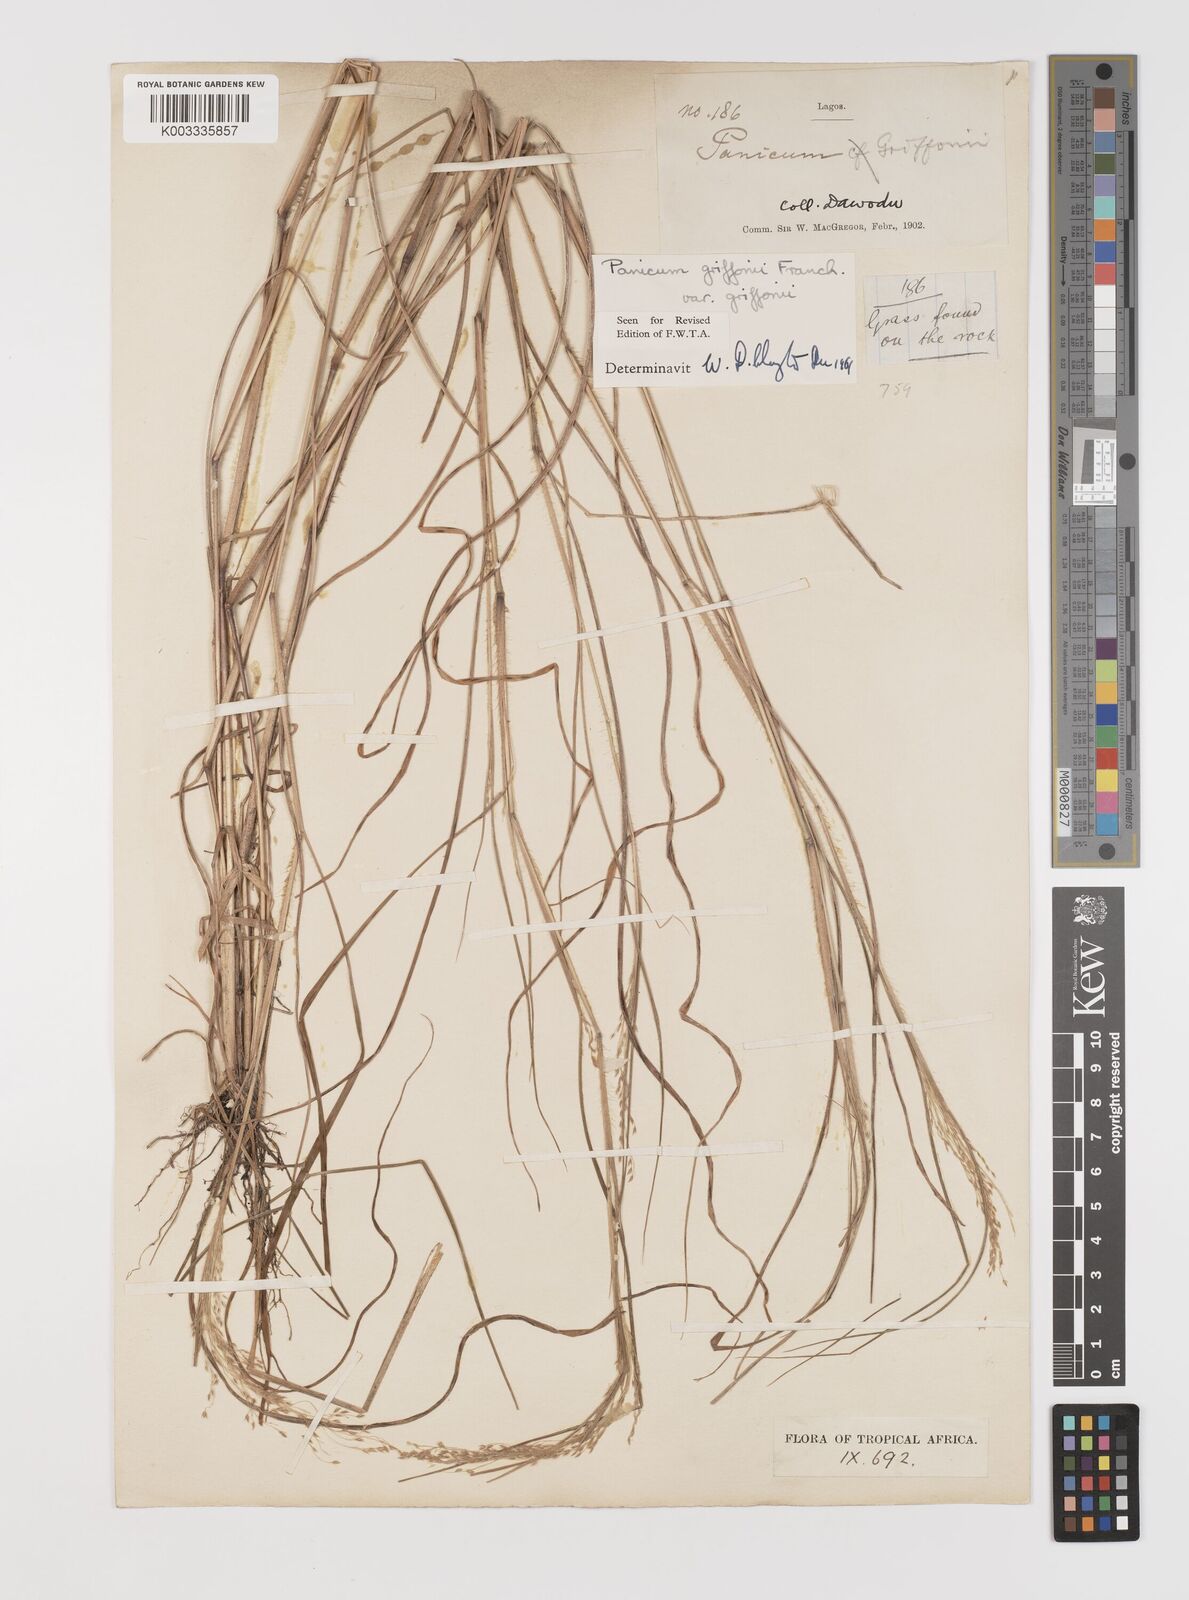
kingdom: Plantae
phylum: Tracheophyta
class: Liliopsida
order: Poales
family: Poaceae
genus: Panicum
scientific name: Panicum griffonii
